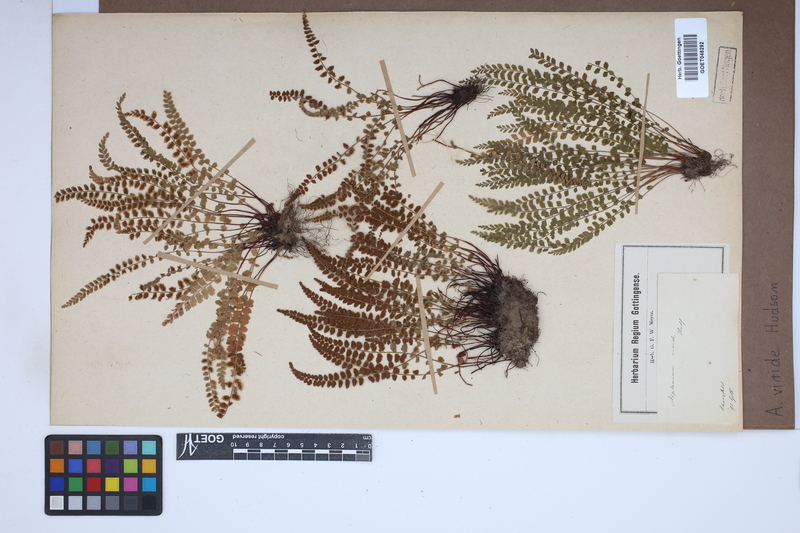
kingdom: Plantae
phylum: Tracheophyta
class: Polypodiopsida
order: Polypodiales
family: Aspleniaceae
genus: Asplenium
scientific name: Asplenium viride
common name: Green spleenwort
